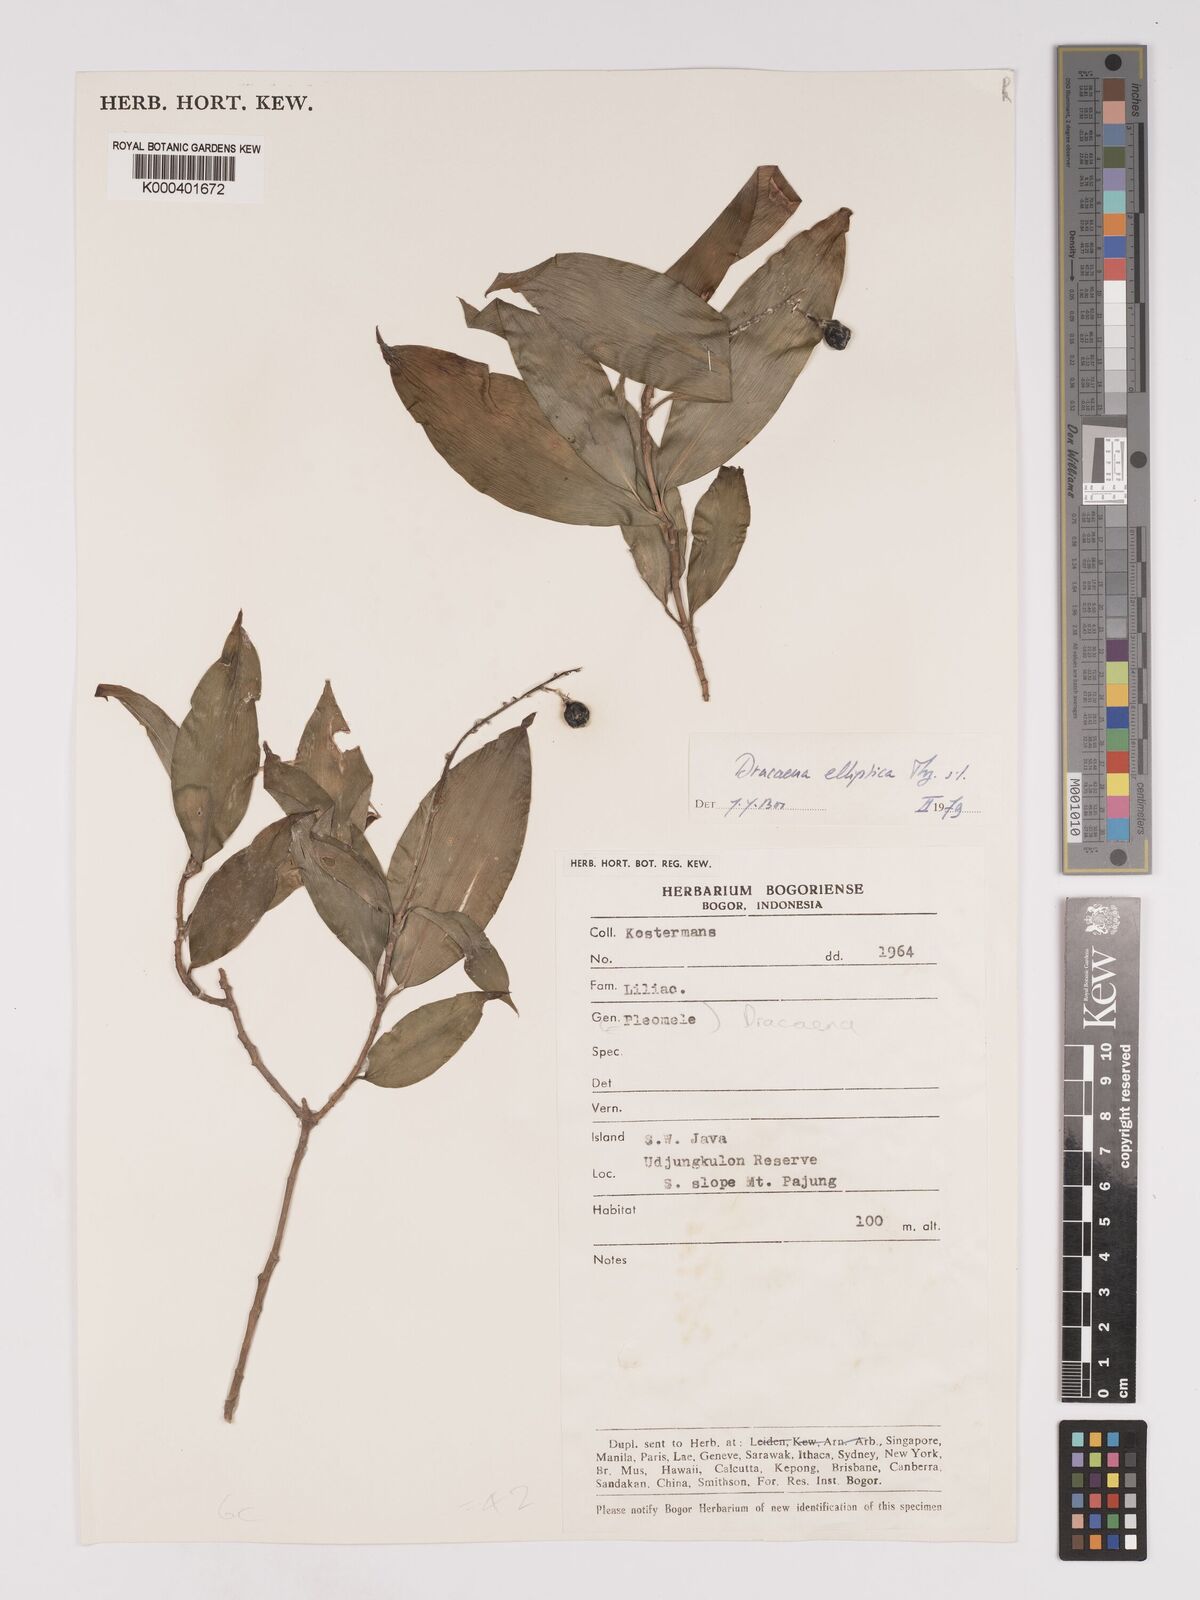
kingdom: Plantae
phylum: Tracheophyta
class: Liliopsida
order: Asparagales
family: Asparagaceae
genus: Dracaena
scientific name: Dracaena elliptica
